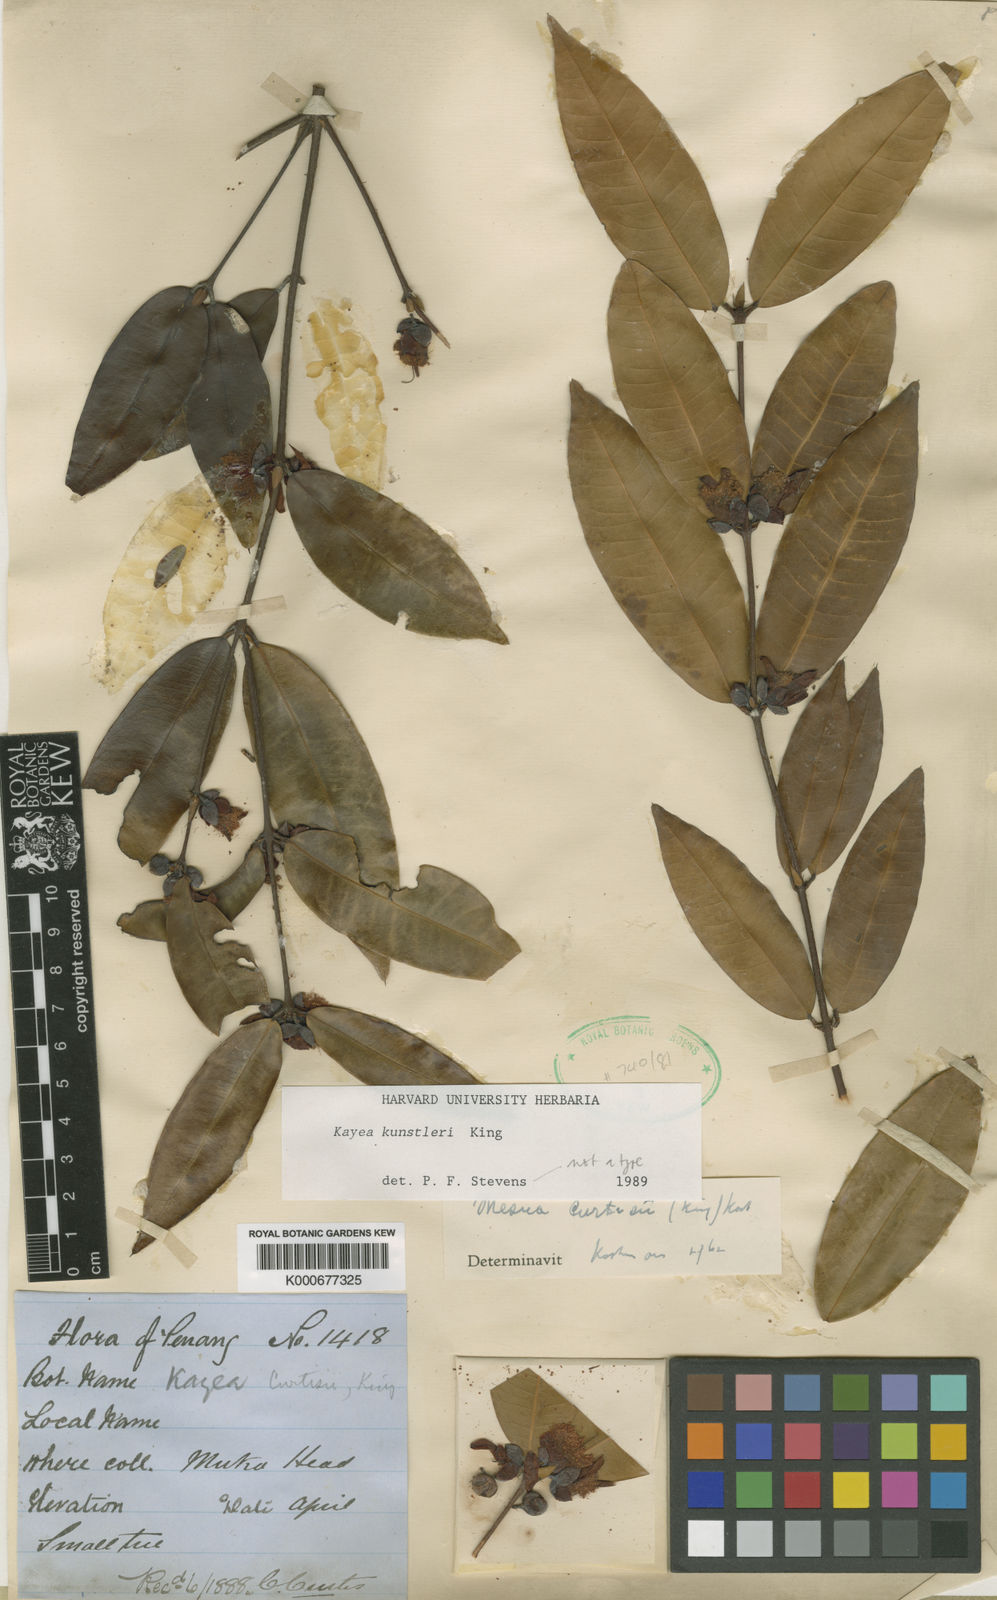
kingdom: Plantae
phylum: Tracheophyta
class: Magnoliopsida
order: Malpighiales
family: Calophyllaceae
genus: Kayea
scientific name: Kayea kunstleri
